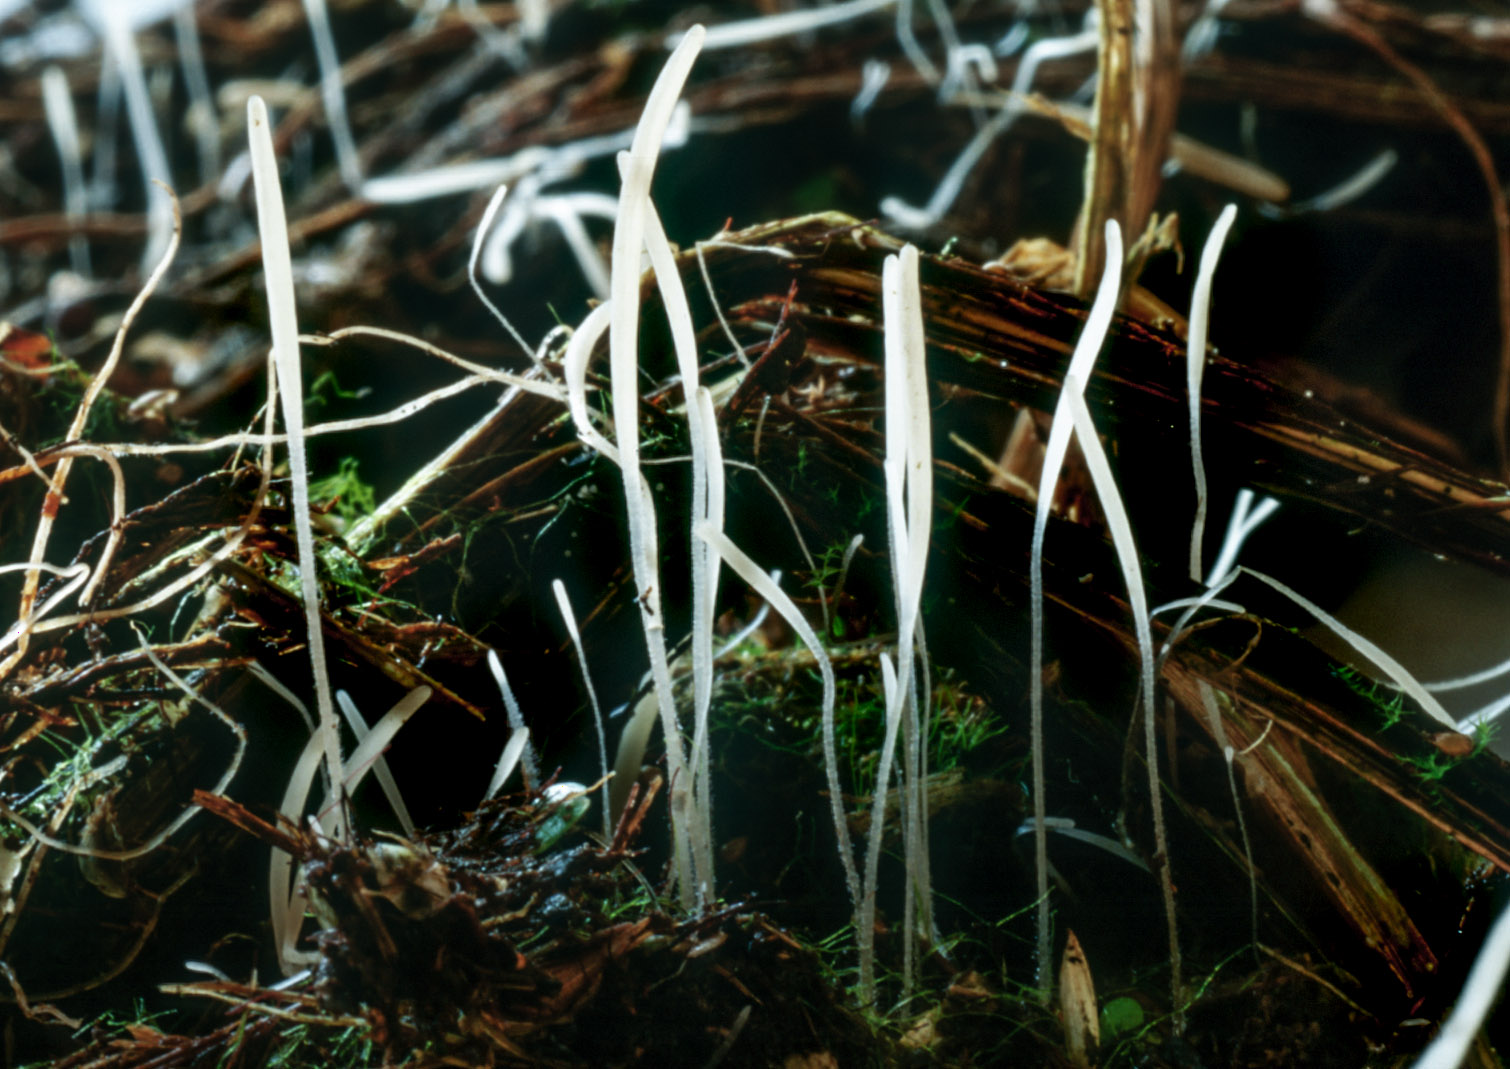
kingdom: Fungi
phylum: Basidiomycota
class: Agaricomycetes
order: Agaricales
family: Typhulaceae
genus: Typhula
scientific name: Typhula sclerotioides
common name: sortknoldet trådkølle
